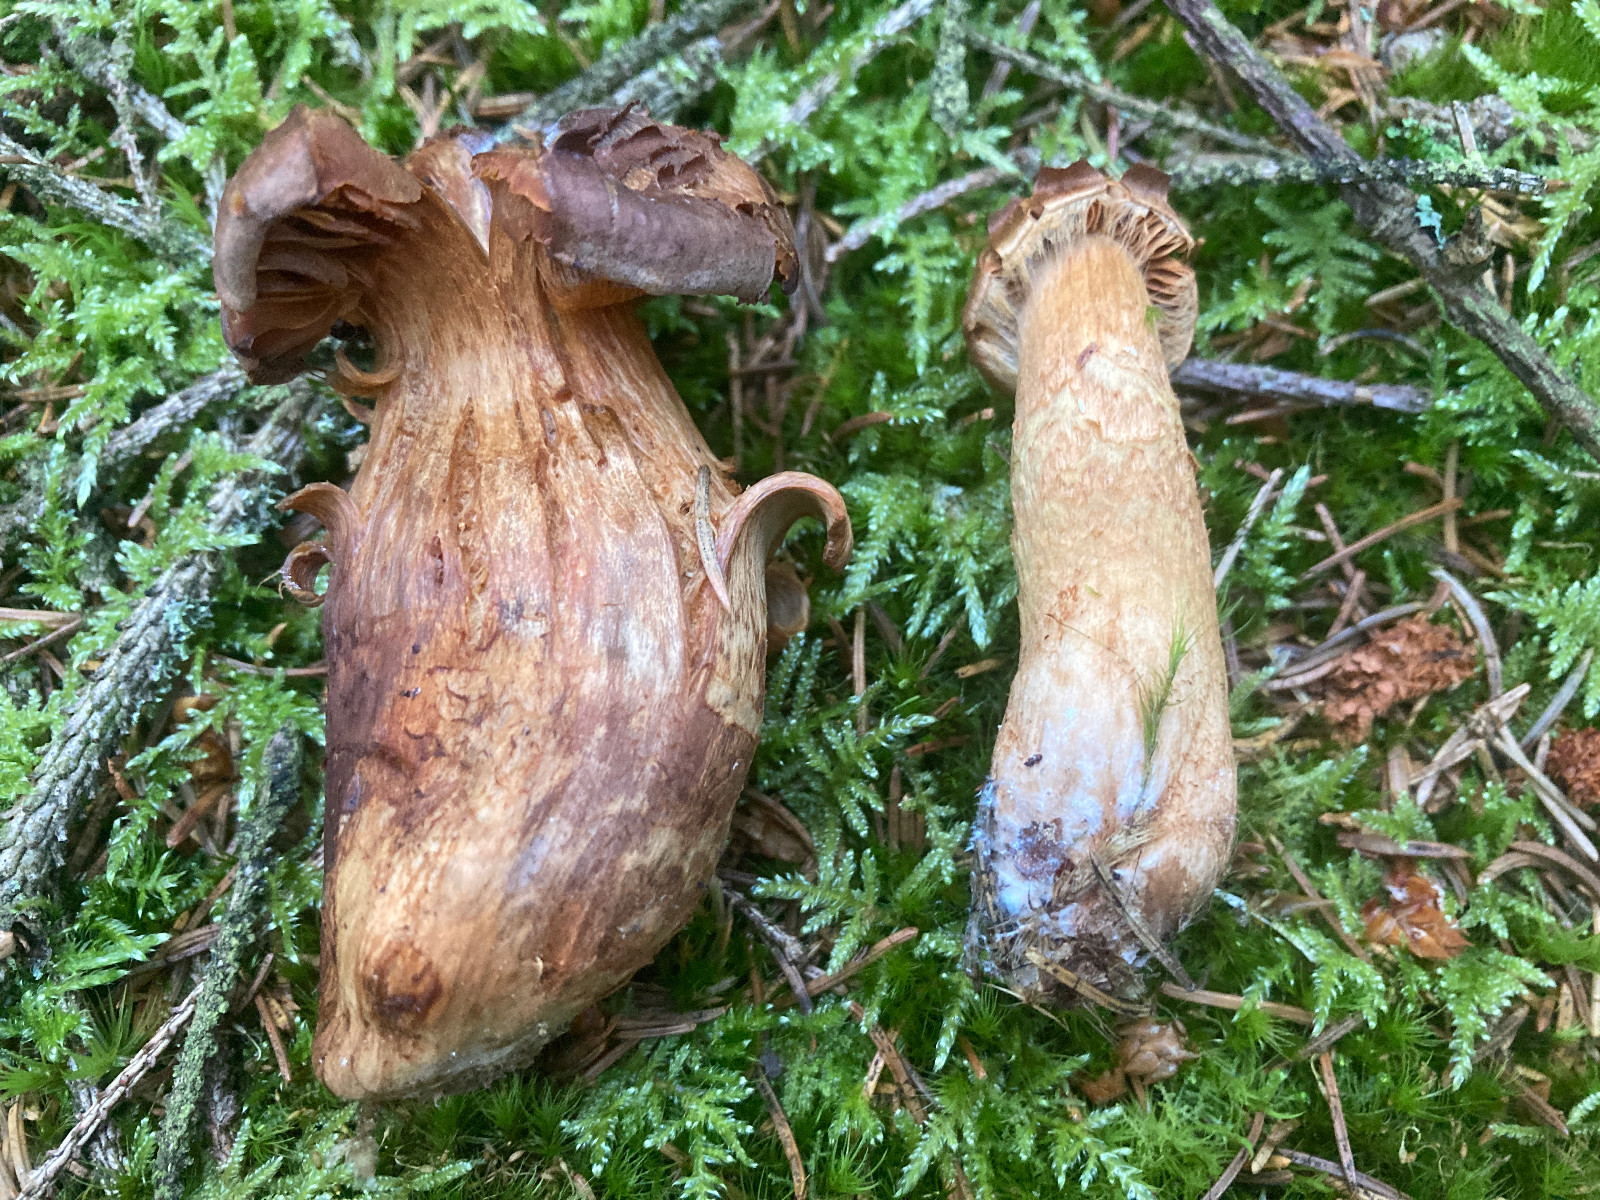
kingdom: Fungi
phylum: Basidiomycota
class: Agaricomycetes
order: Agaricales
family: Cortinariaceae
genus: Cortinarius
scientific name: Cortinarius
